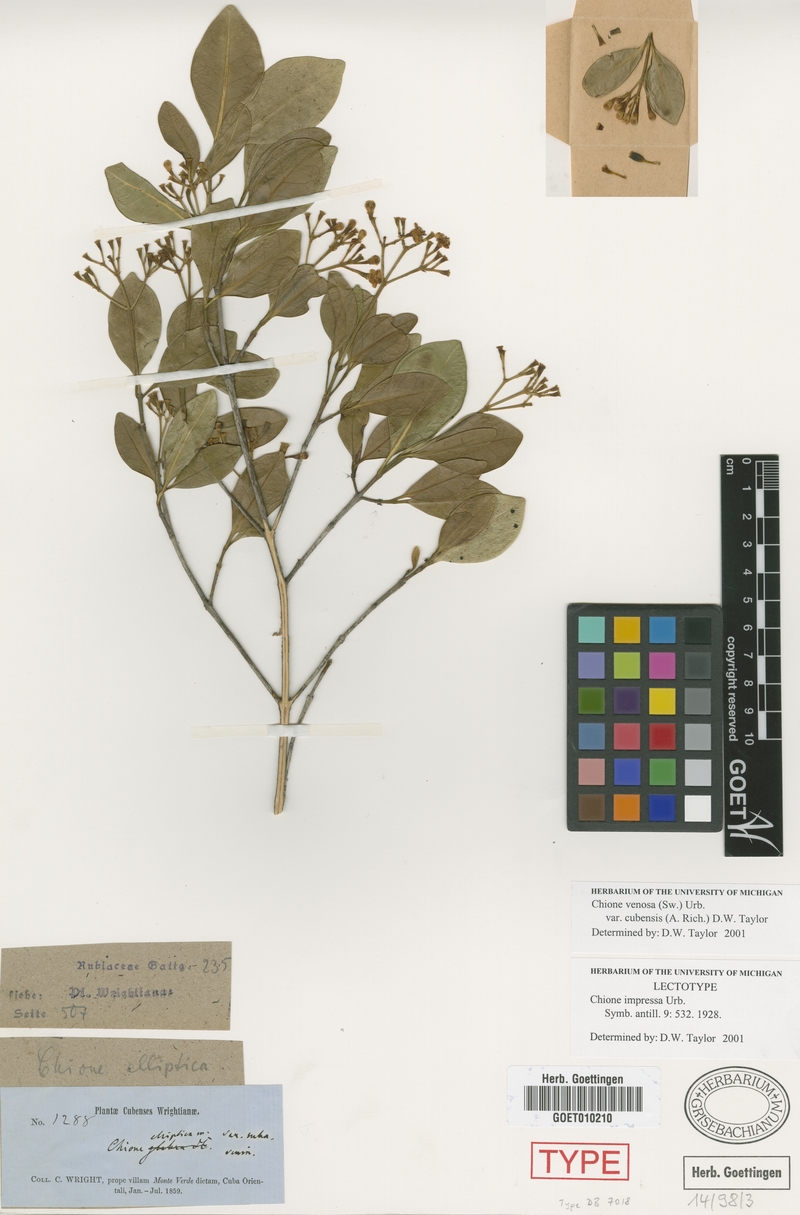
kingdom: Plantae
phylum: Tracheophyta
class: Magnoliopsida
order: Gentianales
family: Rubiaceae
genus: Chione
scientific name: Chione venosa
